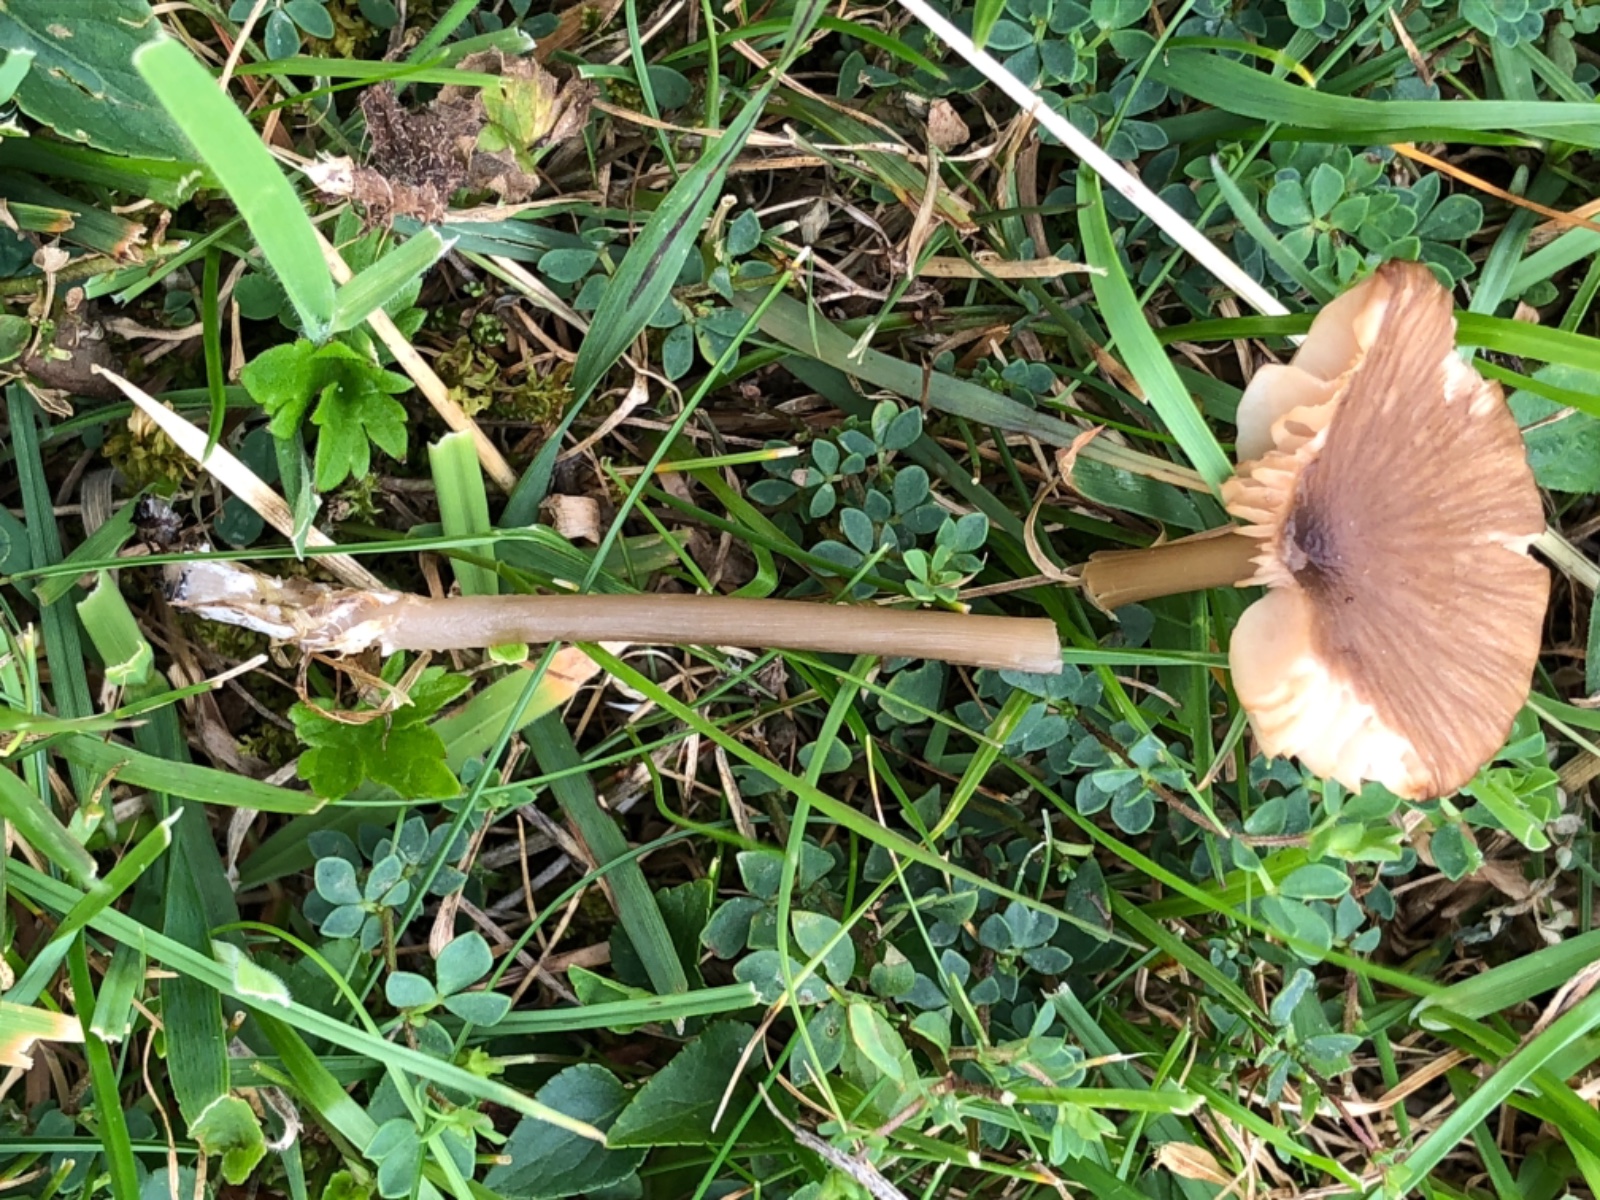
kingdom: Fungi
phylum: Basidiomycota
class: Agaricomycetes
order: Agaricales
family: Entolomataceae
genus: Entoloma
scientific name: Entoloma longistriatum
